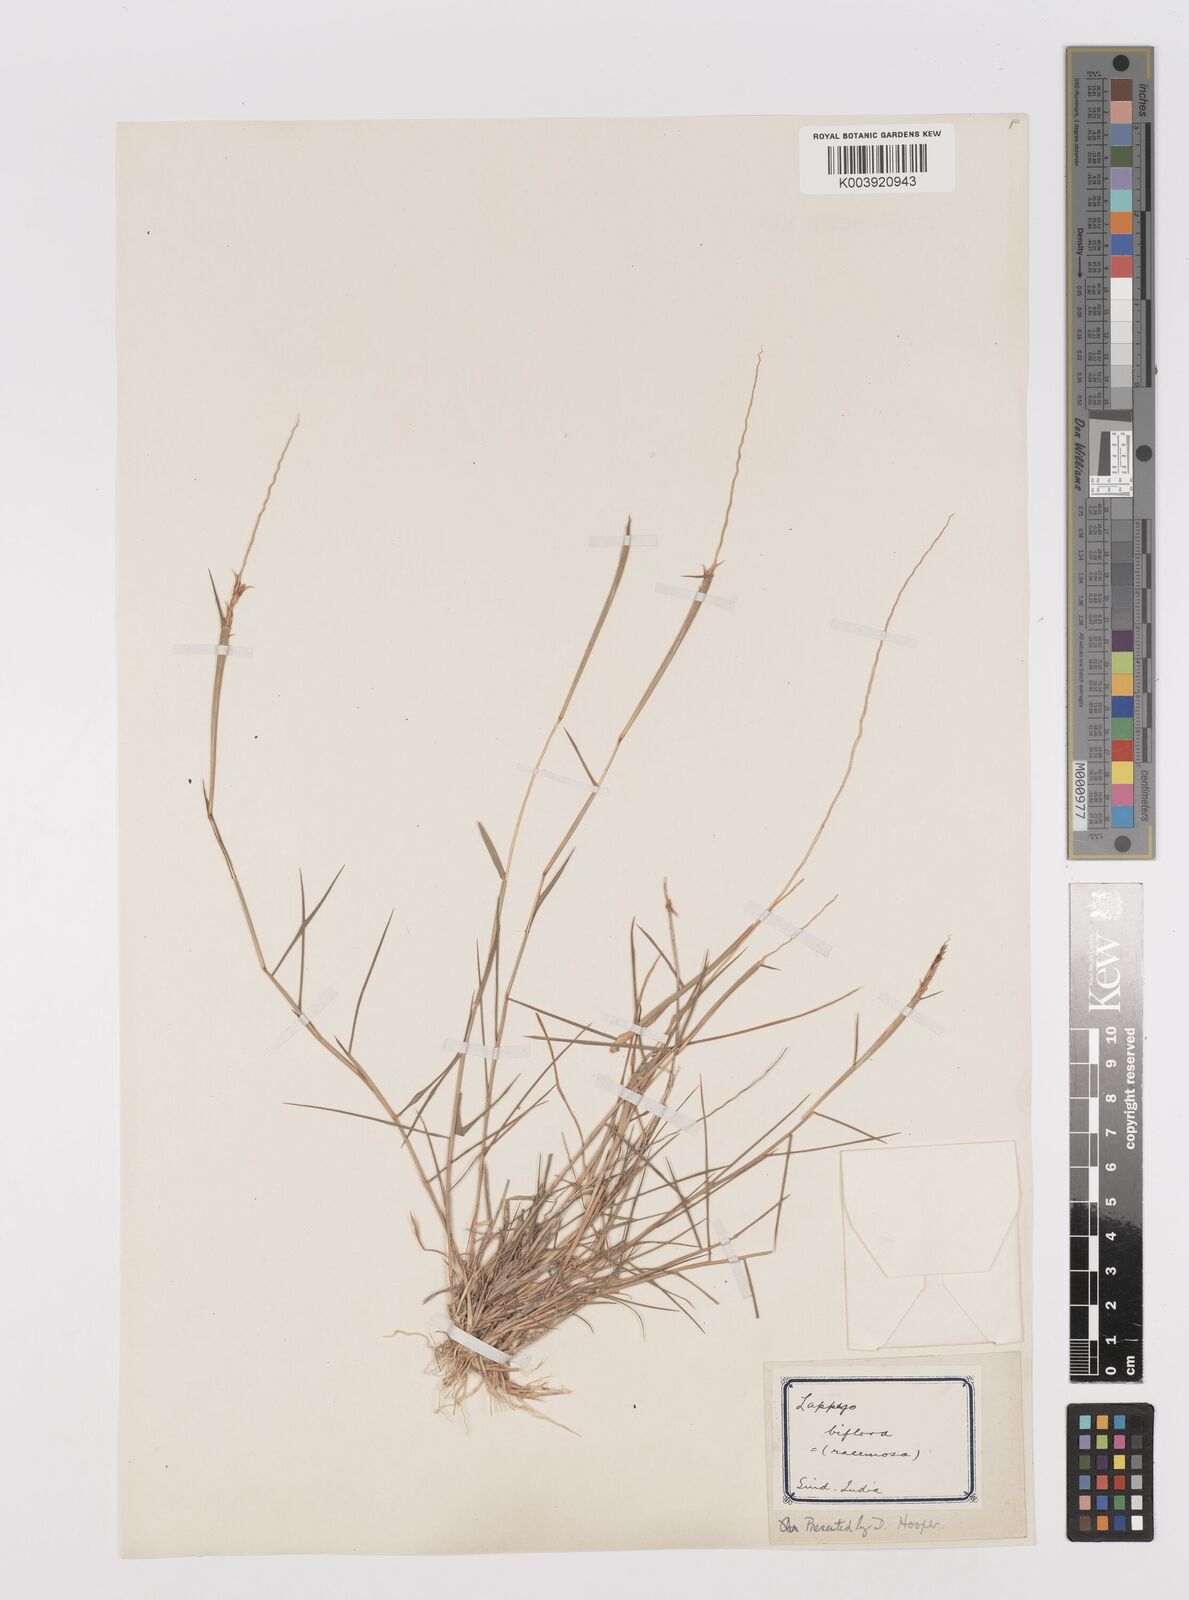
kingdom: Plantae
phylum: Tracheophyta
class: Liliopsida
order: Poales
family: Poaceae
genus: Leptothrium
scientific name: Leptothrium senegalense
